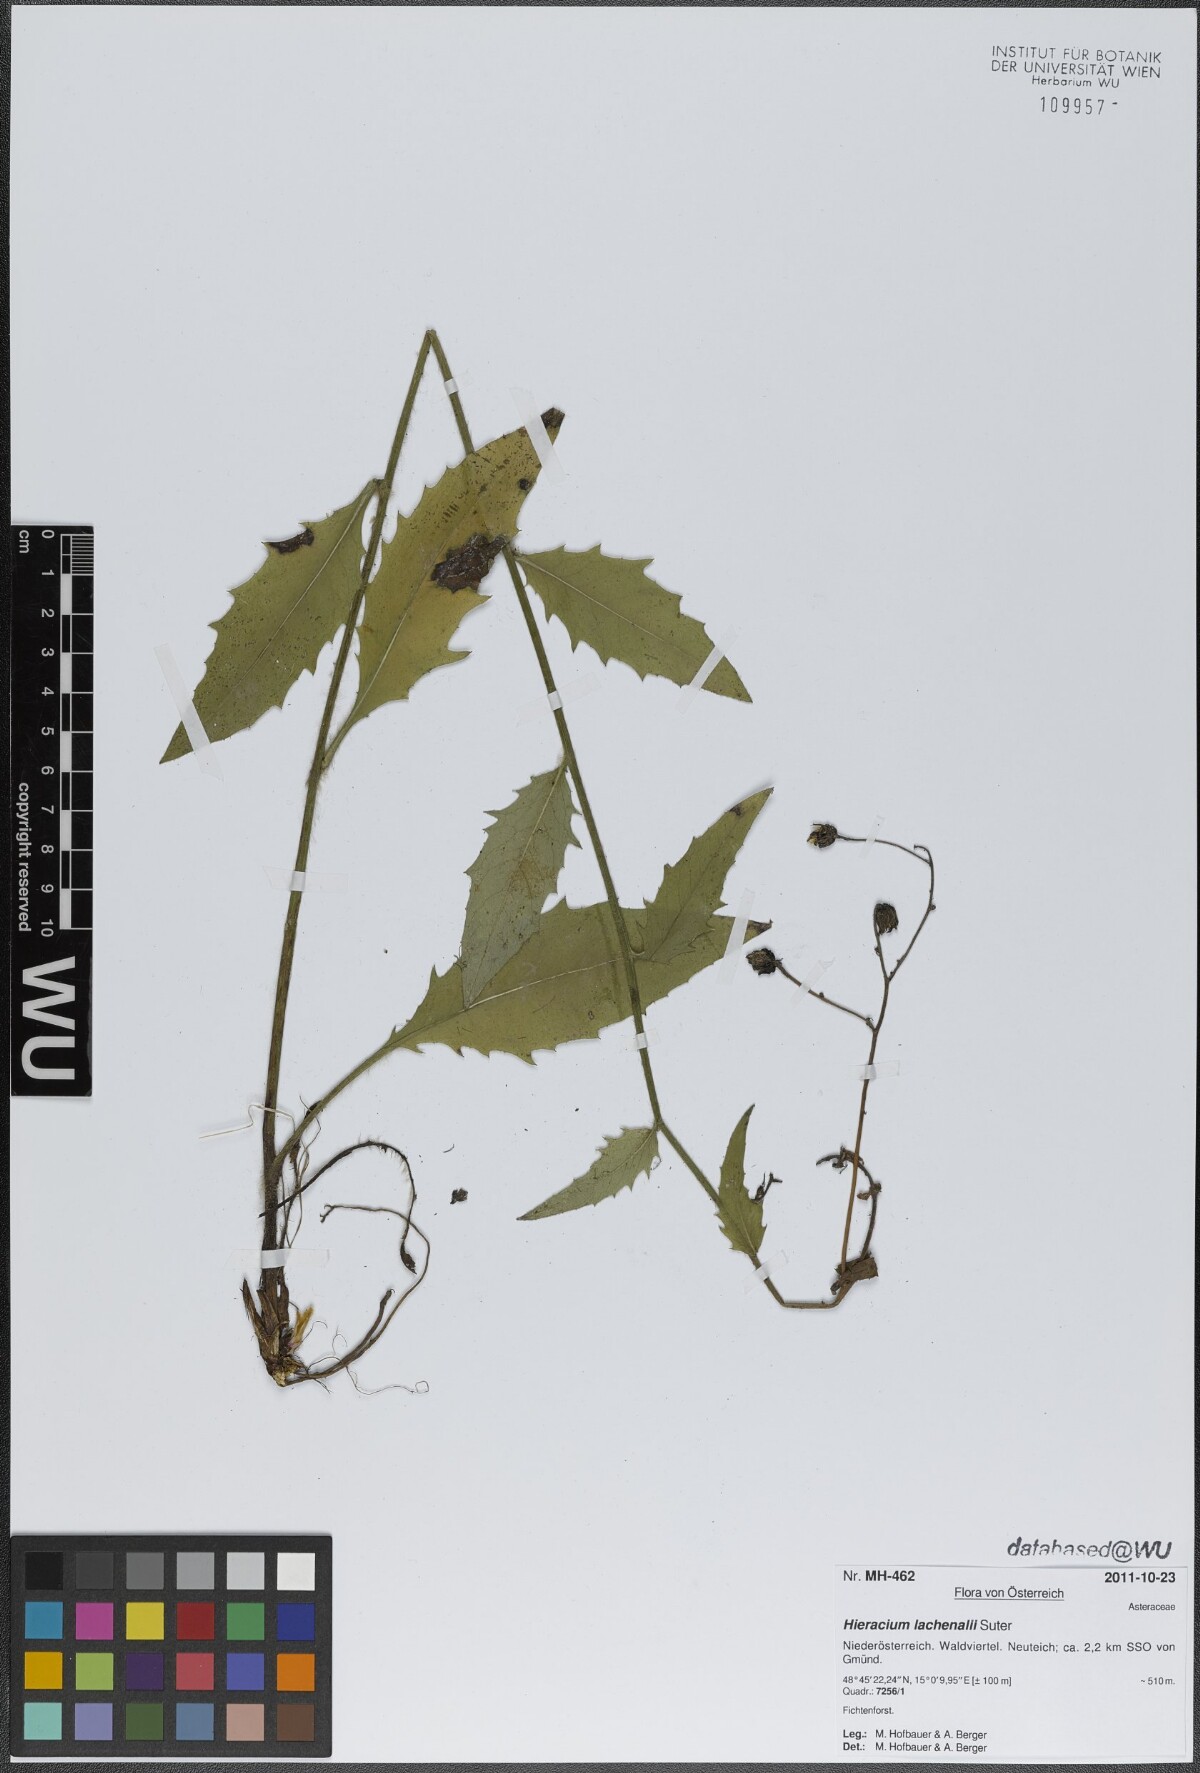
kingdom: Plantae
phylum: Tracheophyta
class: Magnoliopsida
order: Asterales
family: Asteraceae
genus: Hieracium
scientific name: Hieracium lachenalii
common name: Common hawkweed
